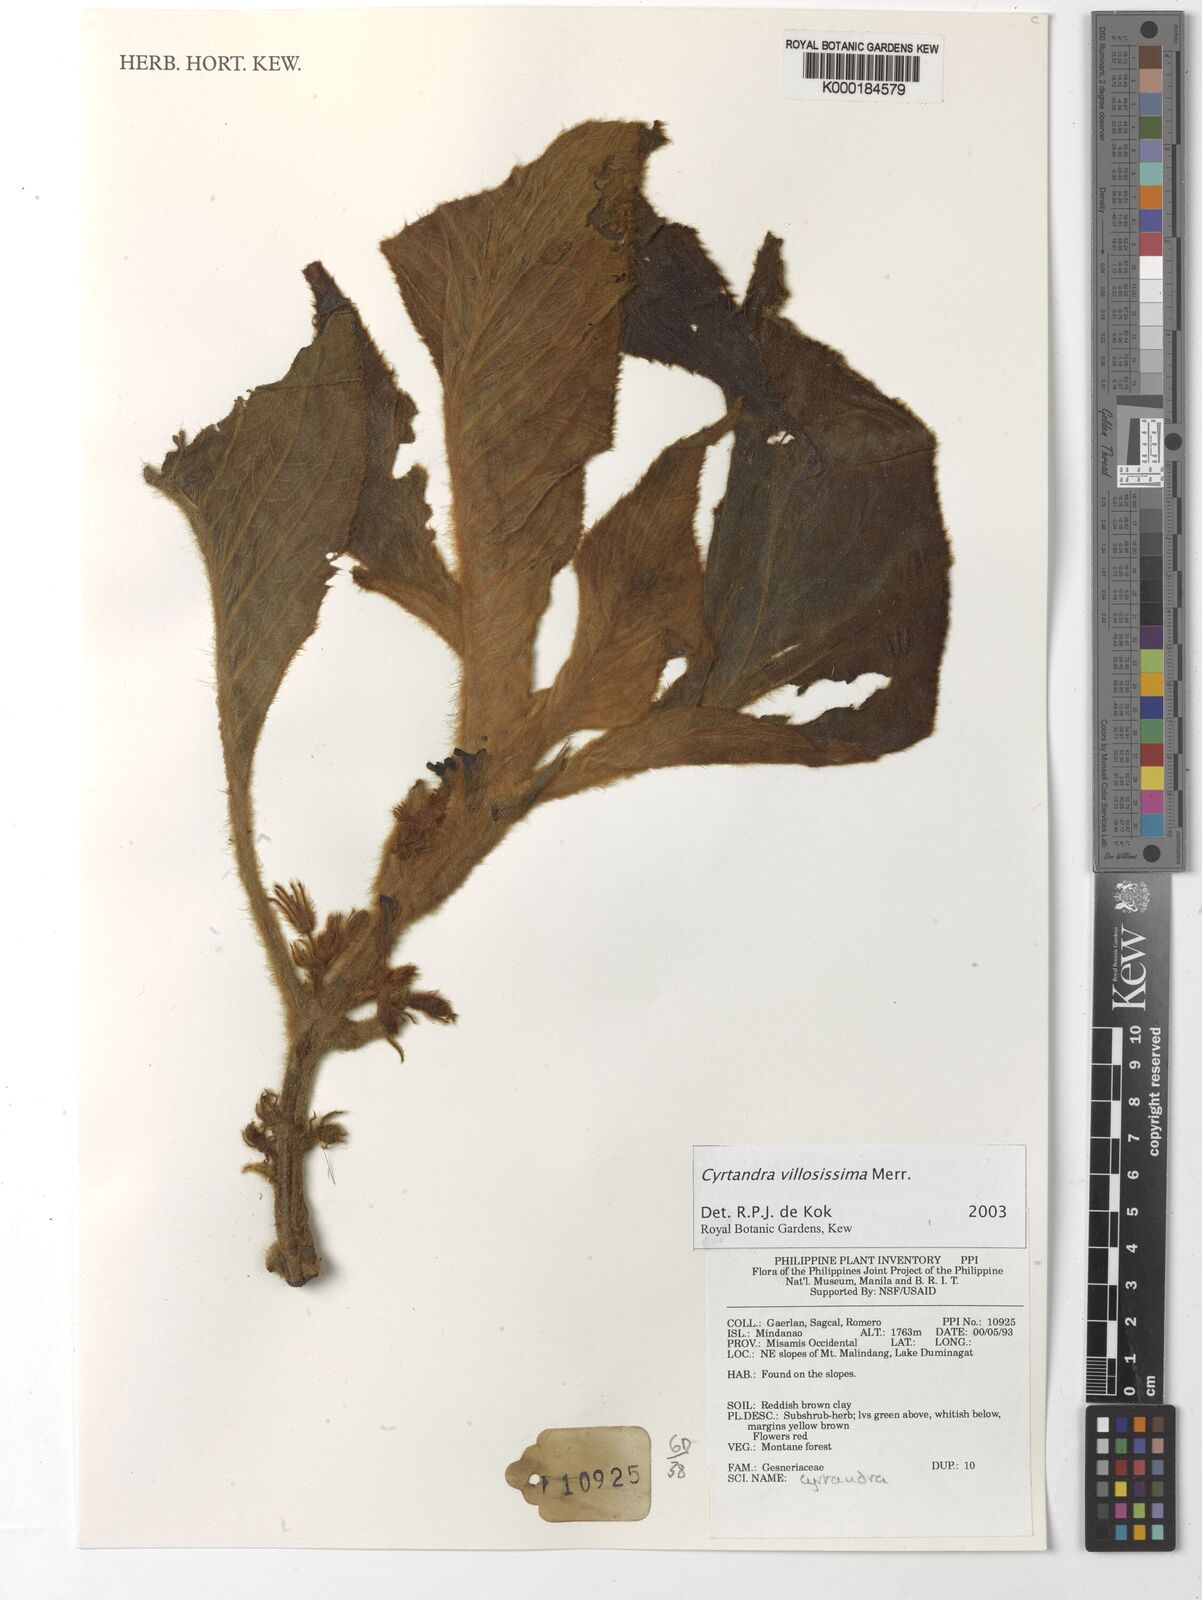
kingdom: Plantae
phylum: Tracheophyta
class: Magnoliopsida
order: Lamiales
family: Gesneriaceae
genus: Cyrtandra
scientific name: Cyrtandra villosissima
